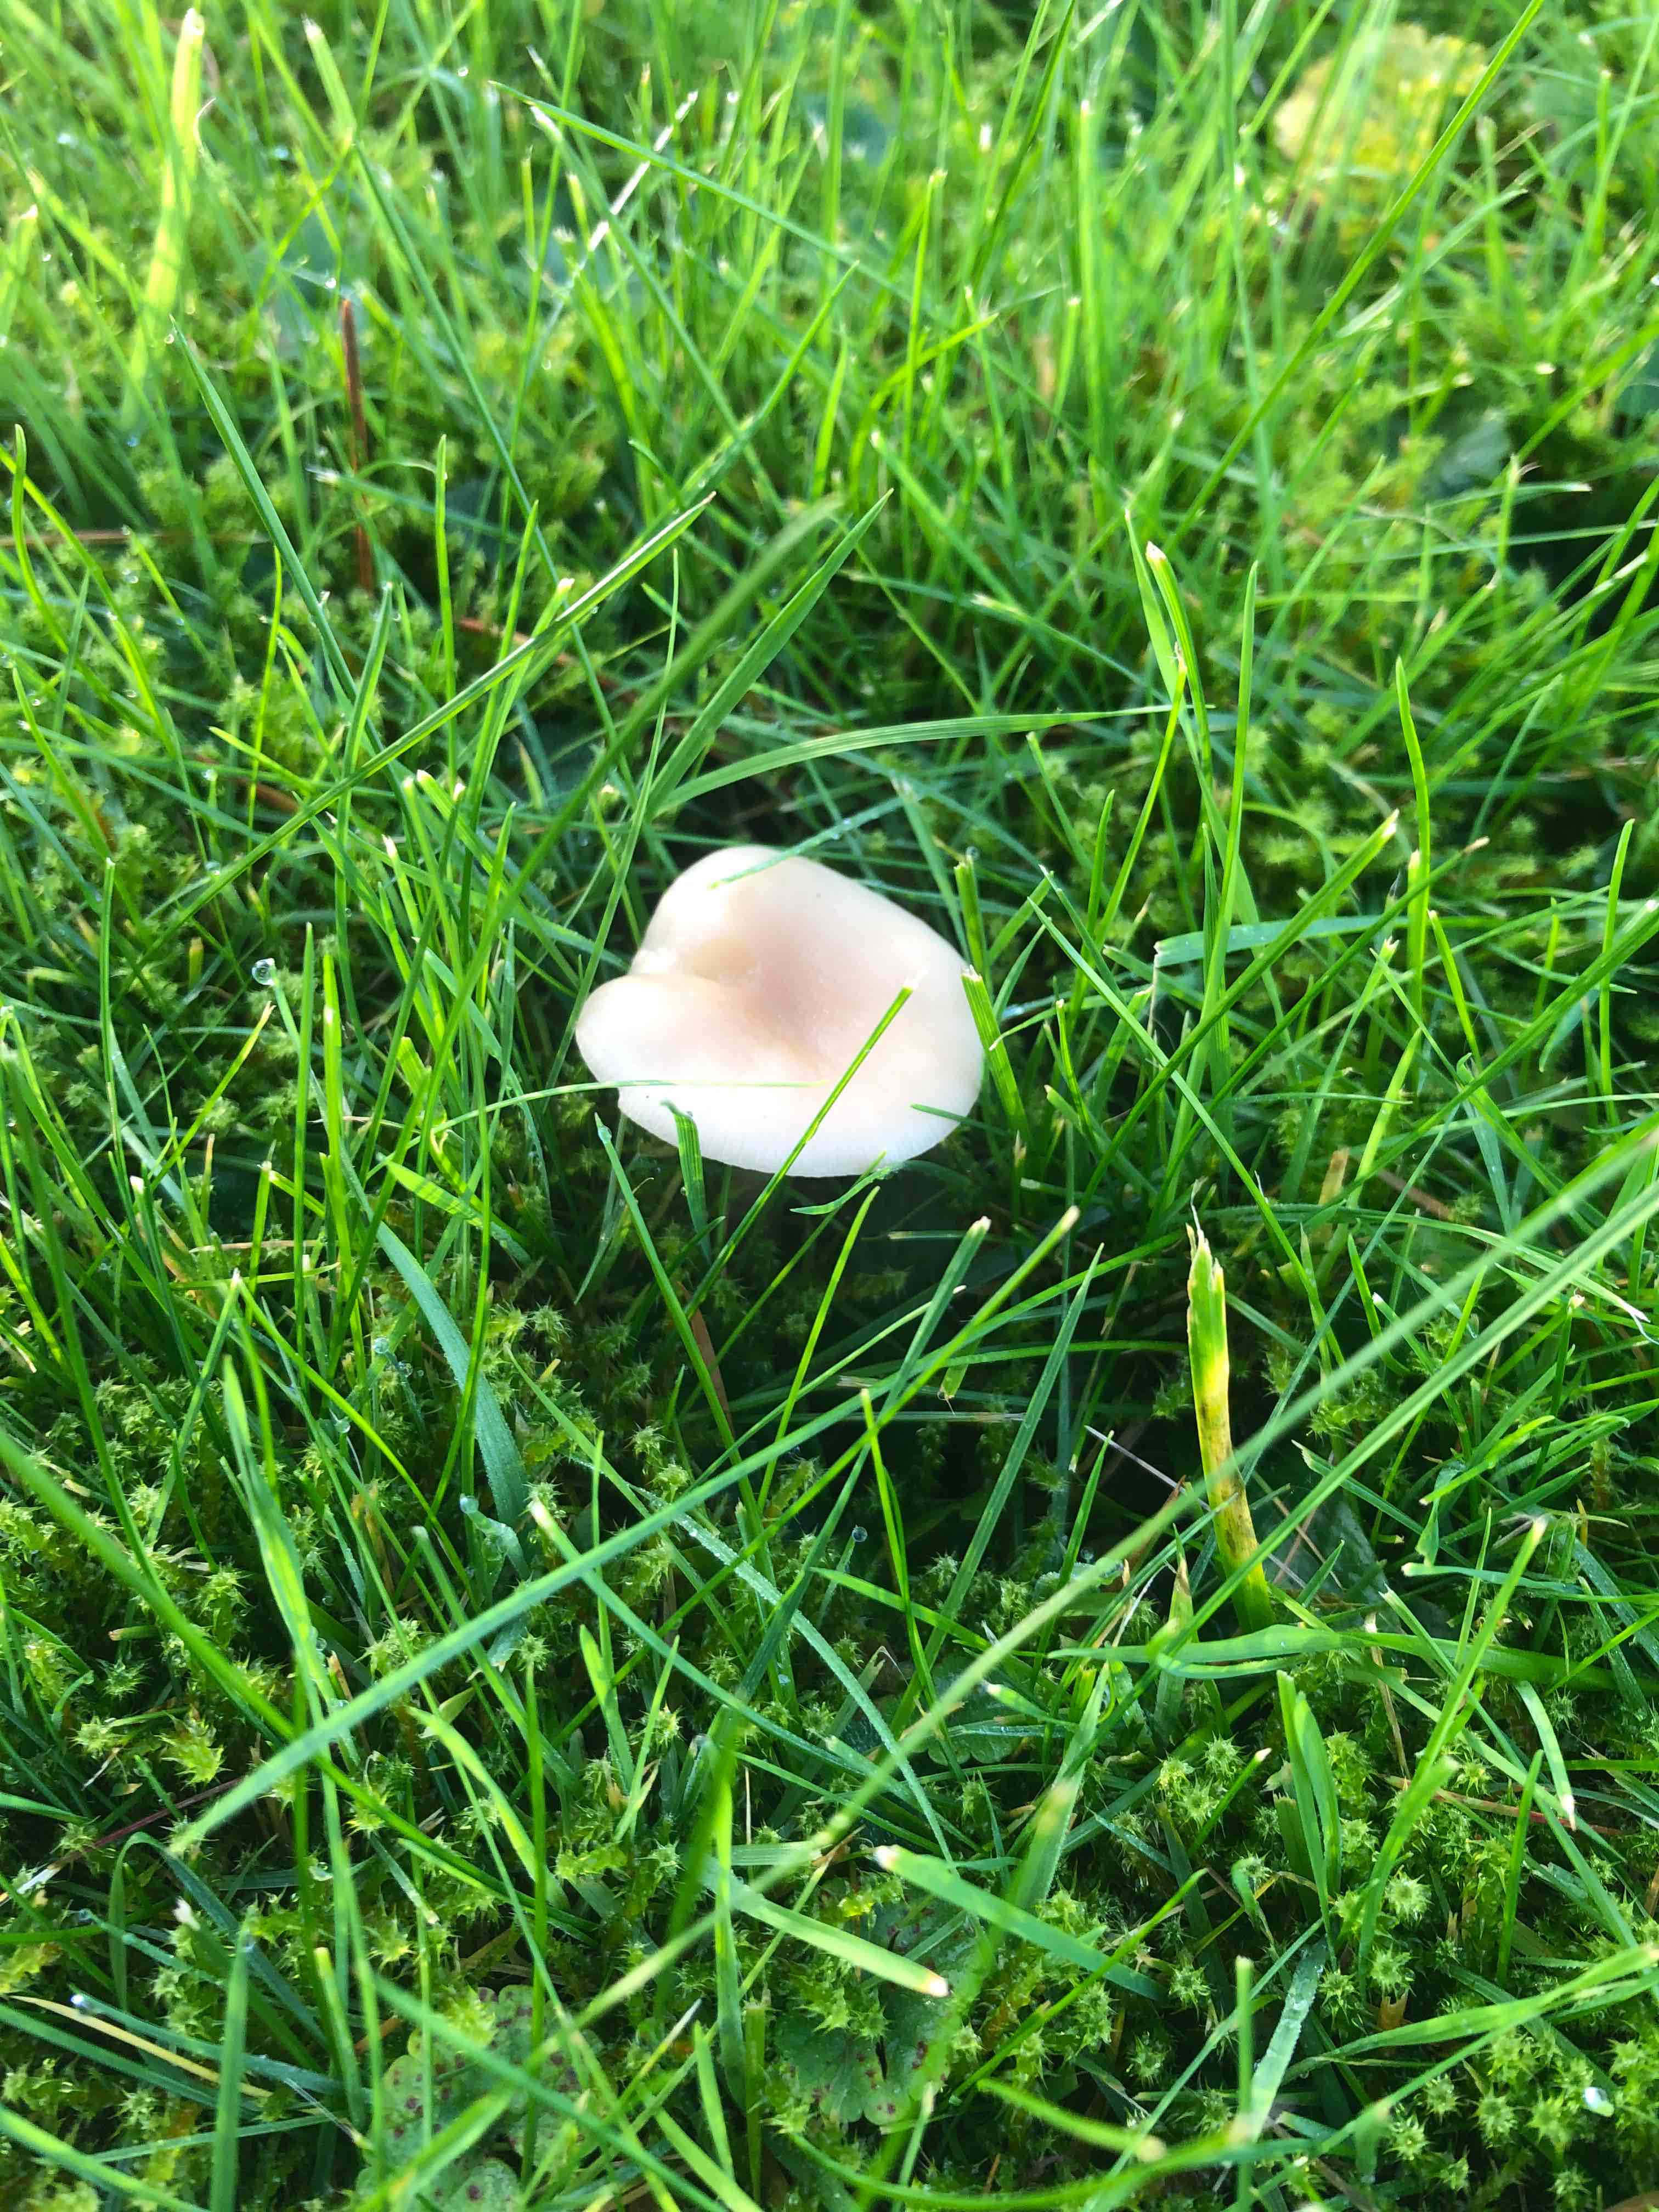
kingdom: Fungi
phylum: Basidiomycota
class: Agaricomycetes
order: Agaricales
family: Tricholomataceae
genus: Clitocybe
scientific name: Clitocybe
